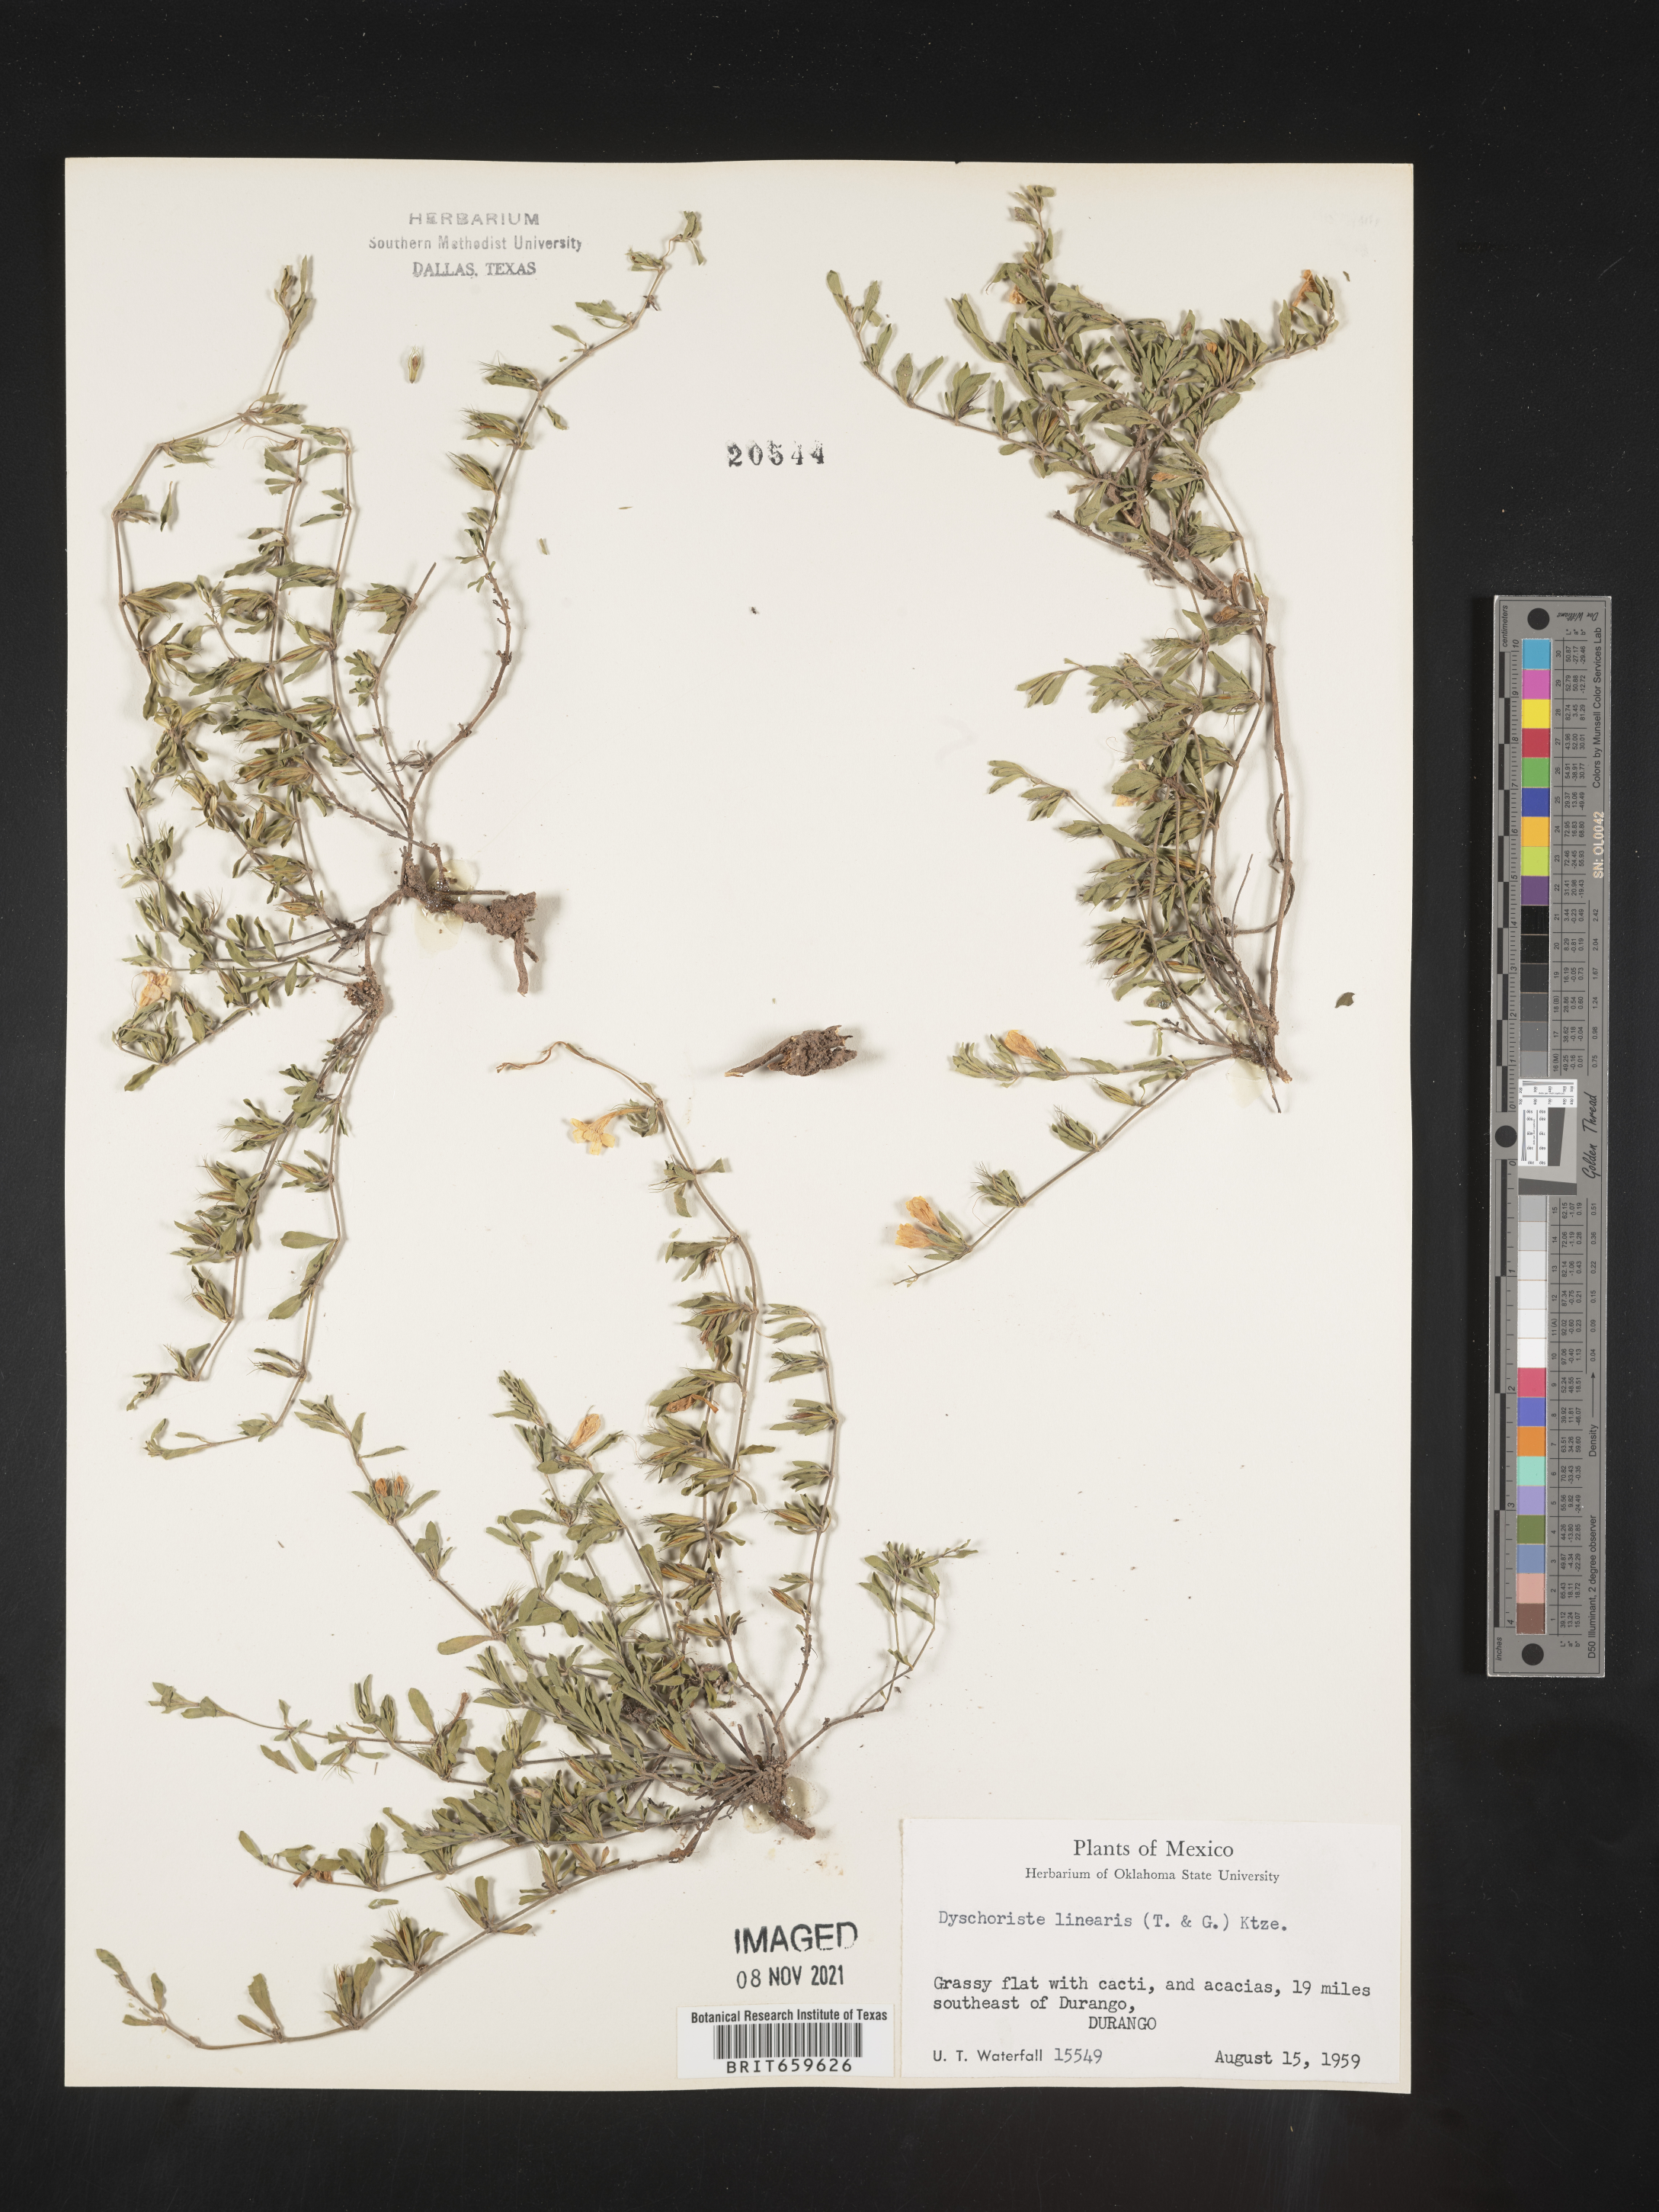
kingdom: Plantae
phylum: Tracheophyta
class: Magnoliopsida
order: Lamiales
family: Acanthaceae
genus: Dyschoriste
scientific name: Dyschoriste
